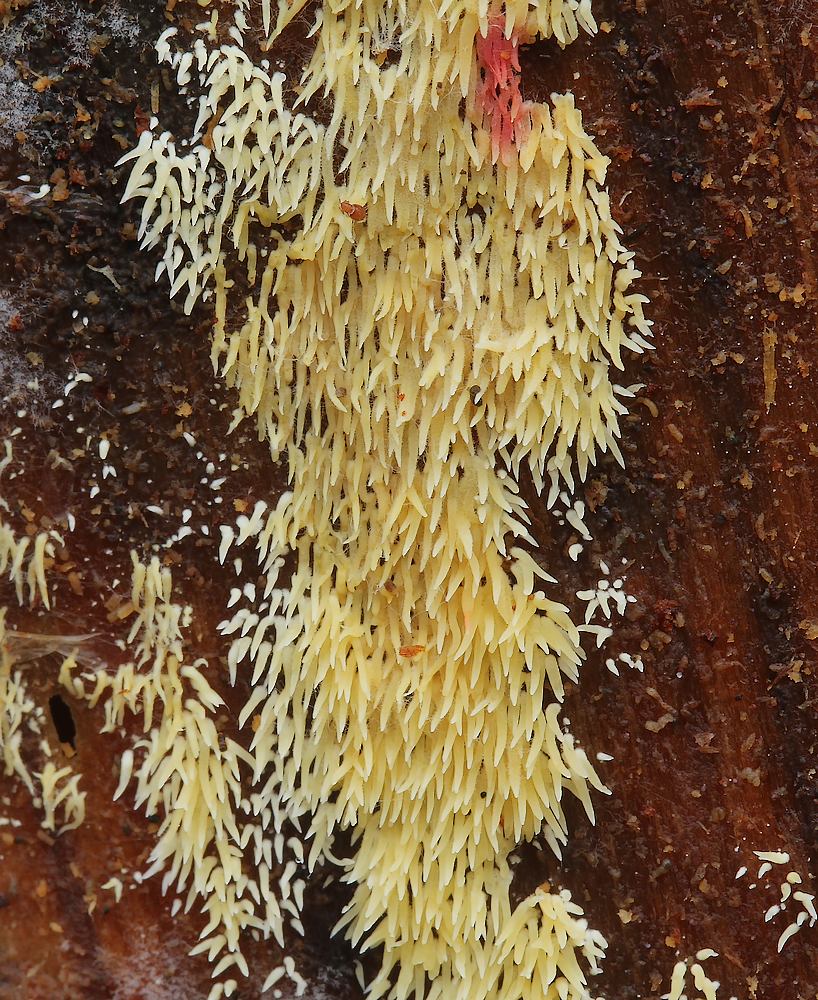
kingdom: Fungi
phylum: Basidiomycota
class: Agaricomycetes
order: Agaricales
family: Clavariaceae
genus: Mucronella
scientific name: Mucronella flava
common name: gul hængepig
